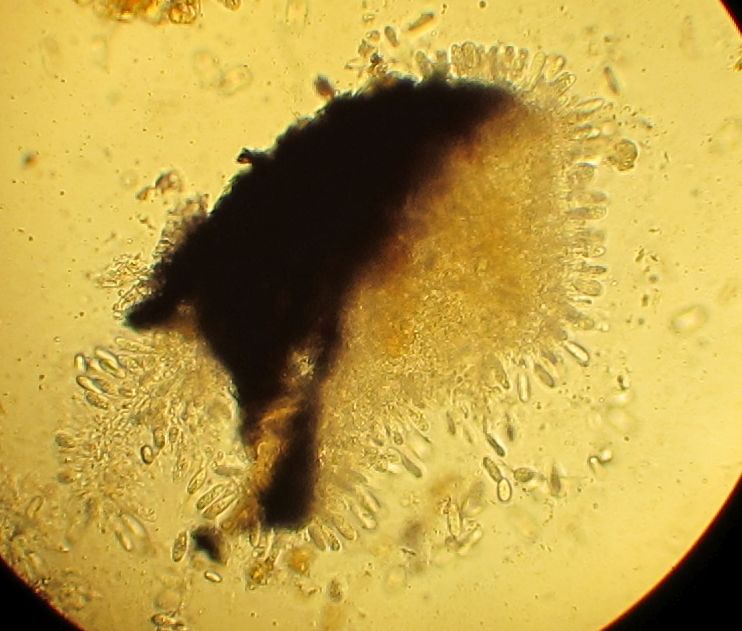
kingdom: Fungi
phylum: Ascomycota
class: Dothideomycetes
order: Botryosphaeriales
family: Botryosphaeriaceae
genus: Botryosphaeria
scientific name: Botryosphaeria stevensii
